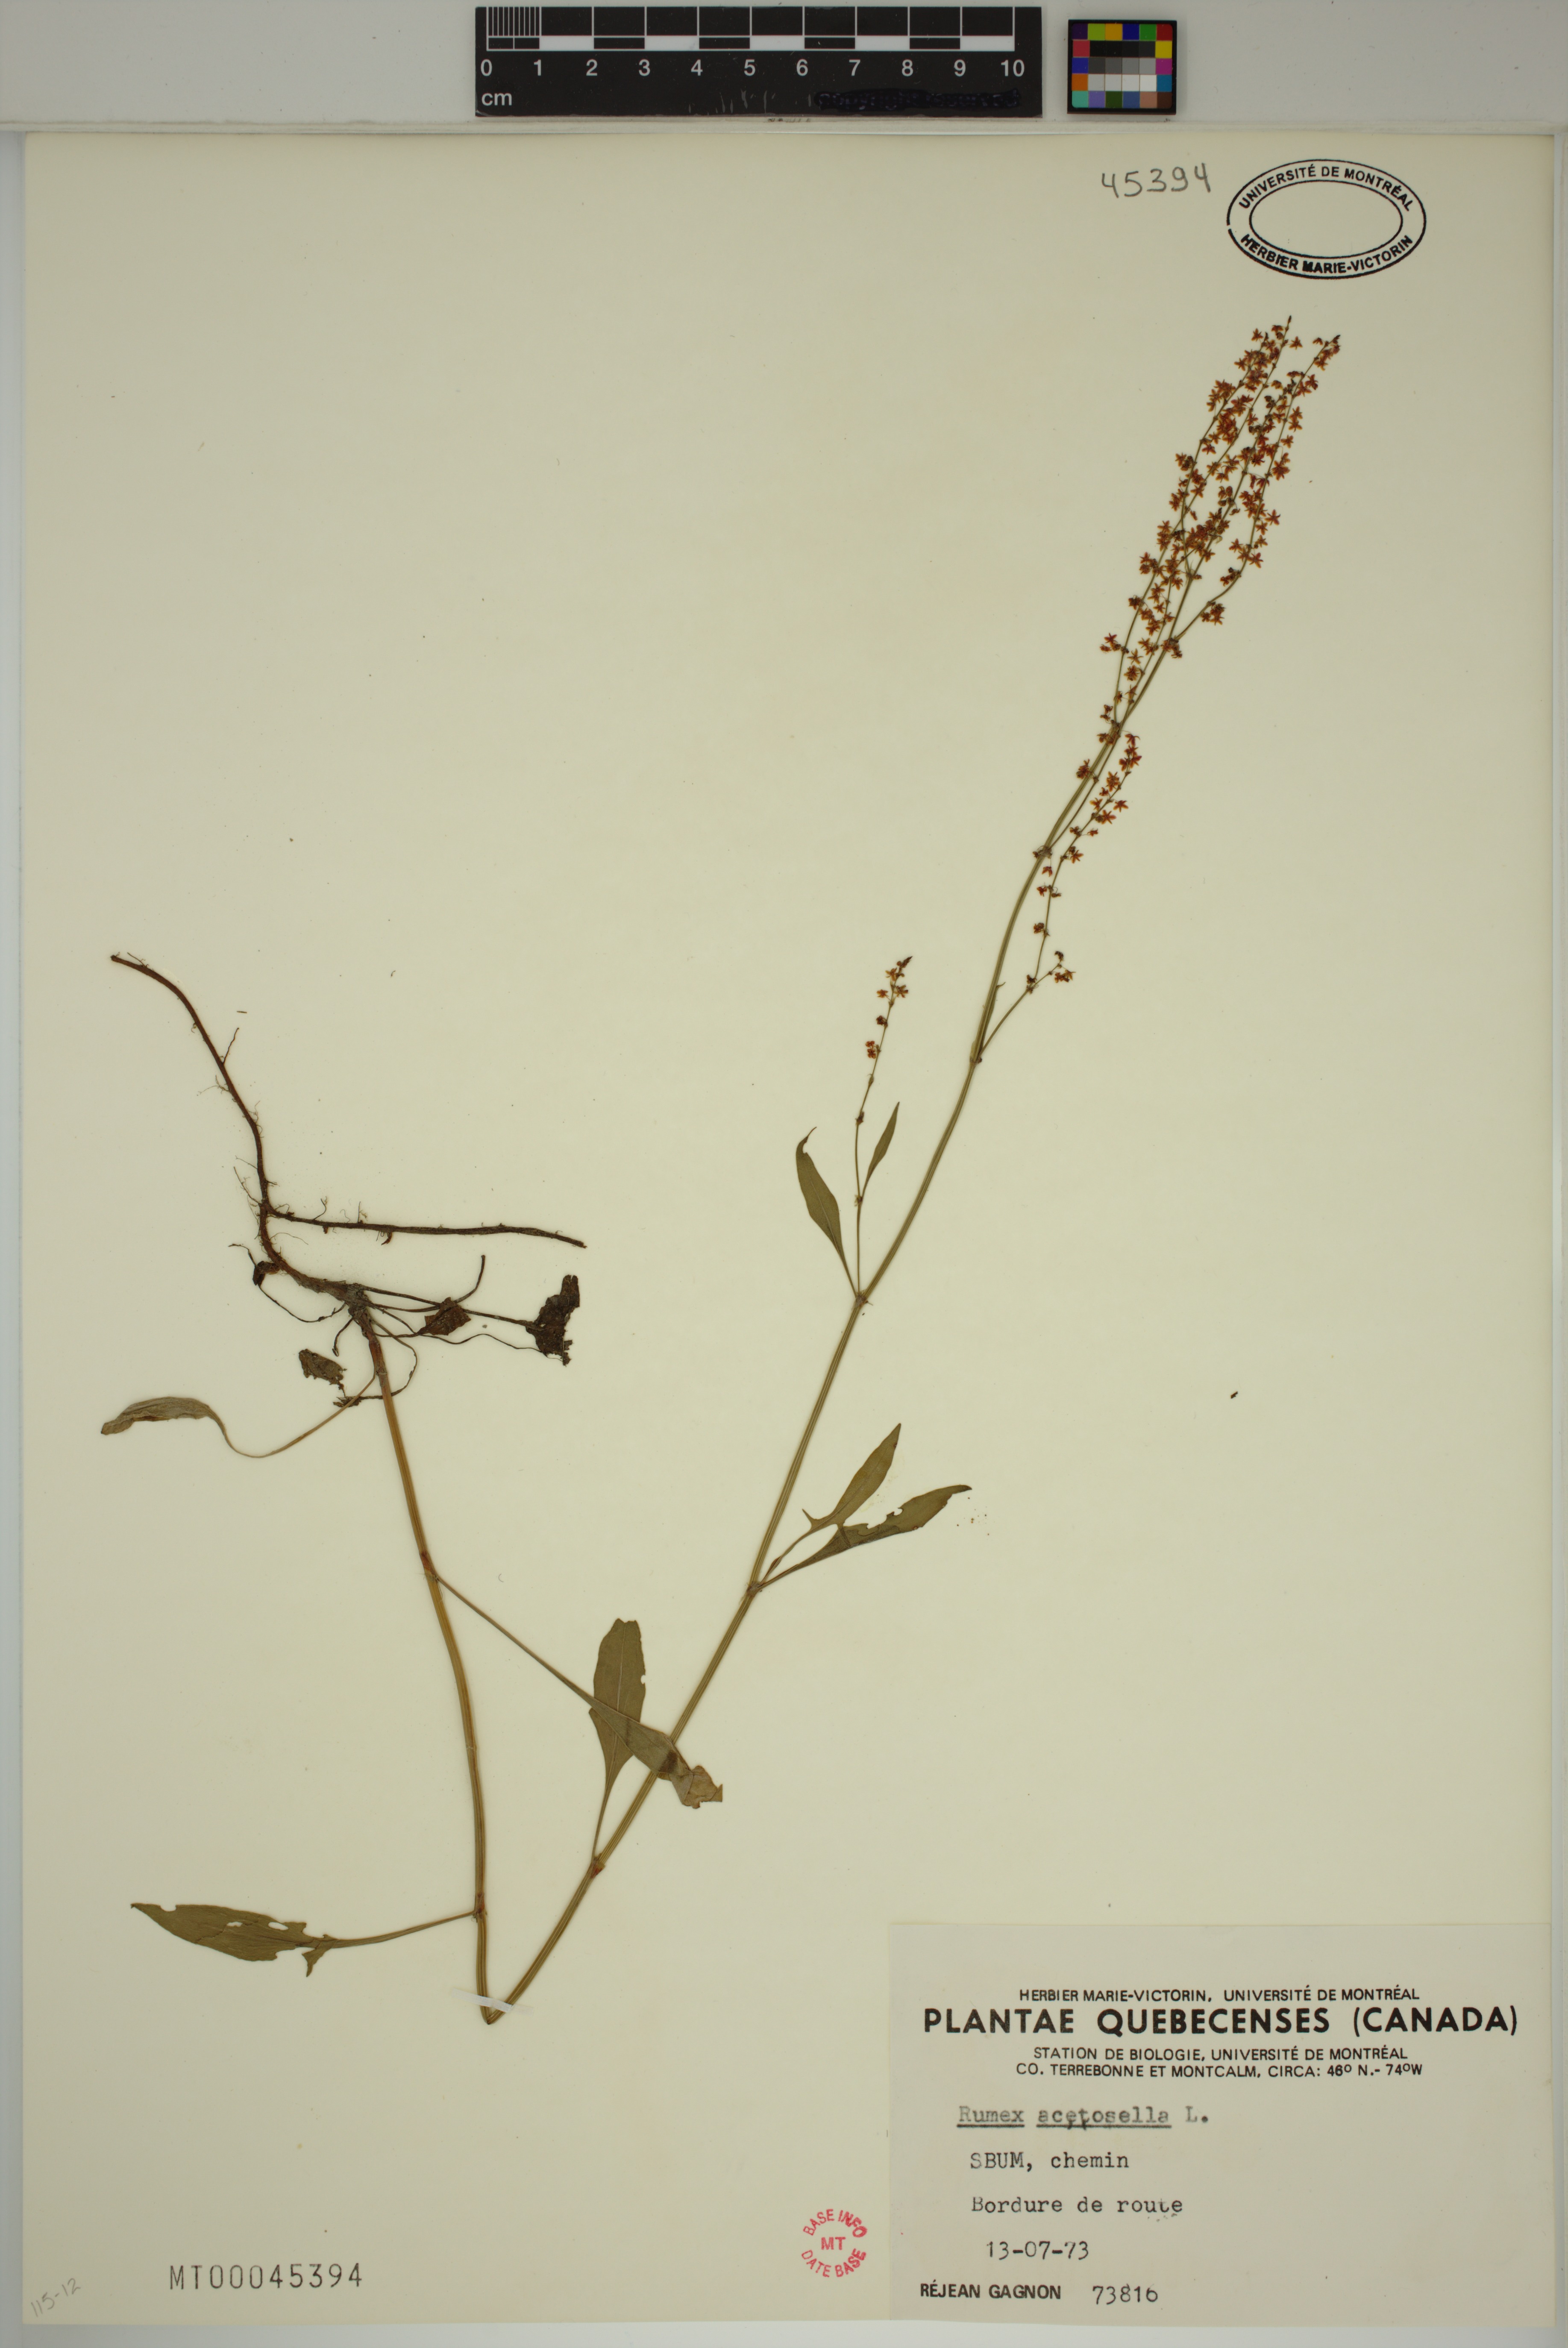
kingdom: Plantae
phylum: Tracheophyta
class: Magnoliopsida
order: Caryophyllales
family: Polygonaceae
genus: Rumex
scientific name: Rumex acetosella
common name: Common sheep sorrel
